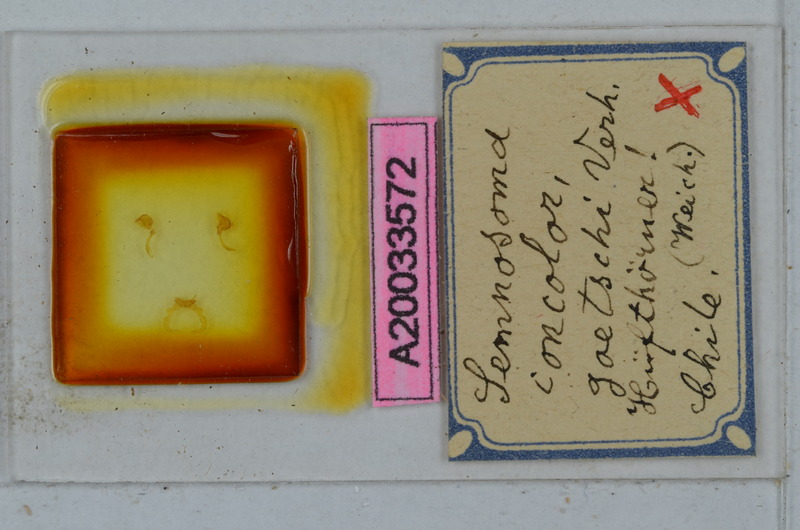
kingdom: Animalia
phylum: Arthropoda
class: Diplopoda
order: Polydesmida
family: Dalodesmidae
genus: Semnosoma
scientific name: Semnosoma concolor
